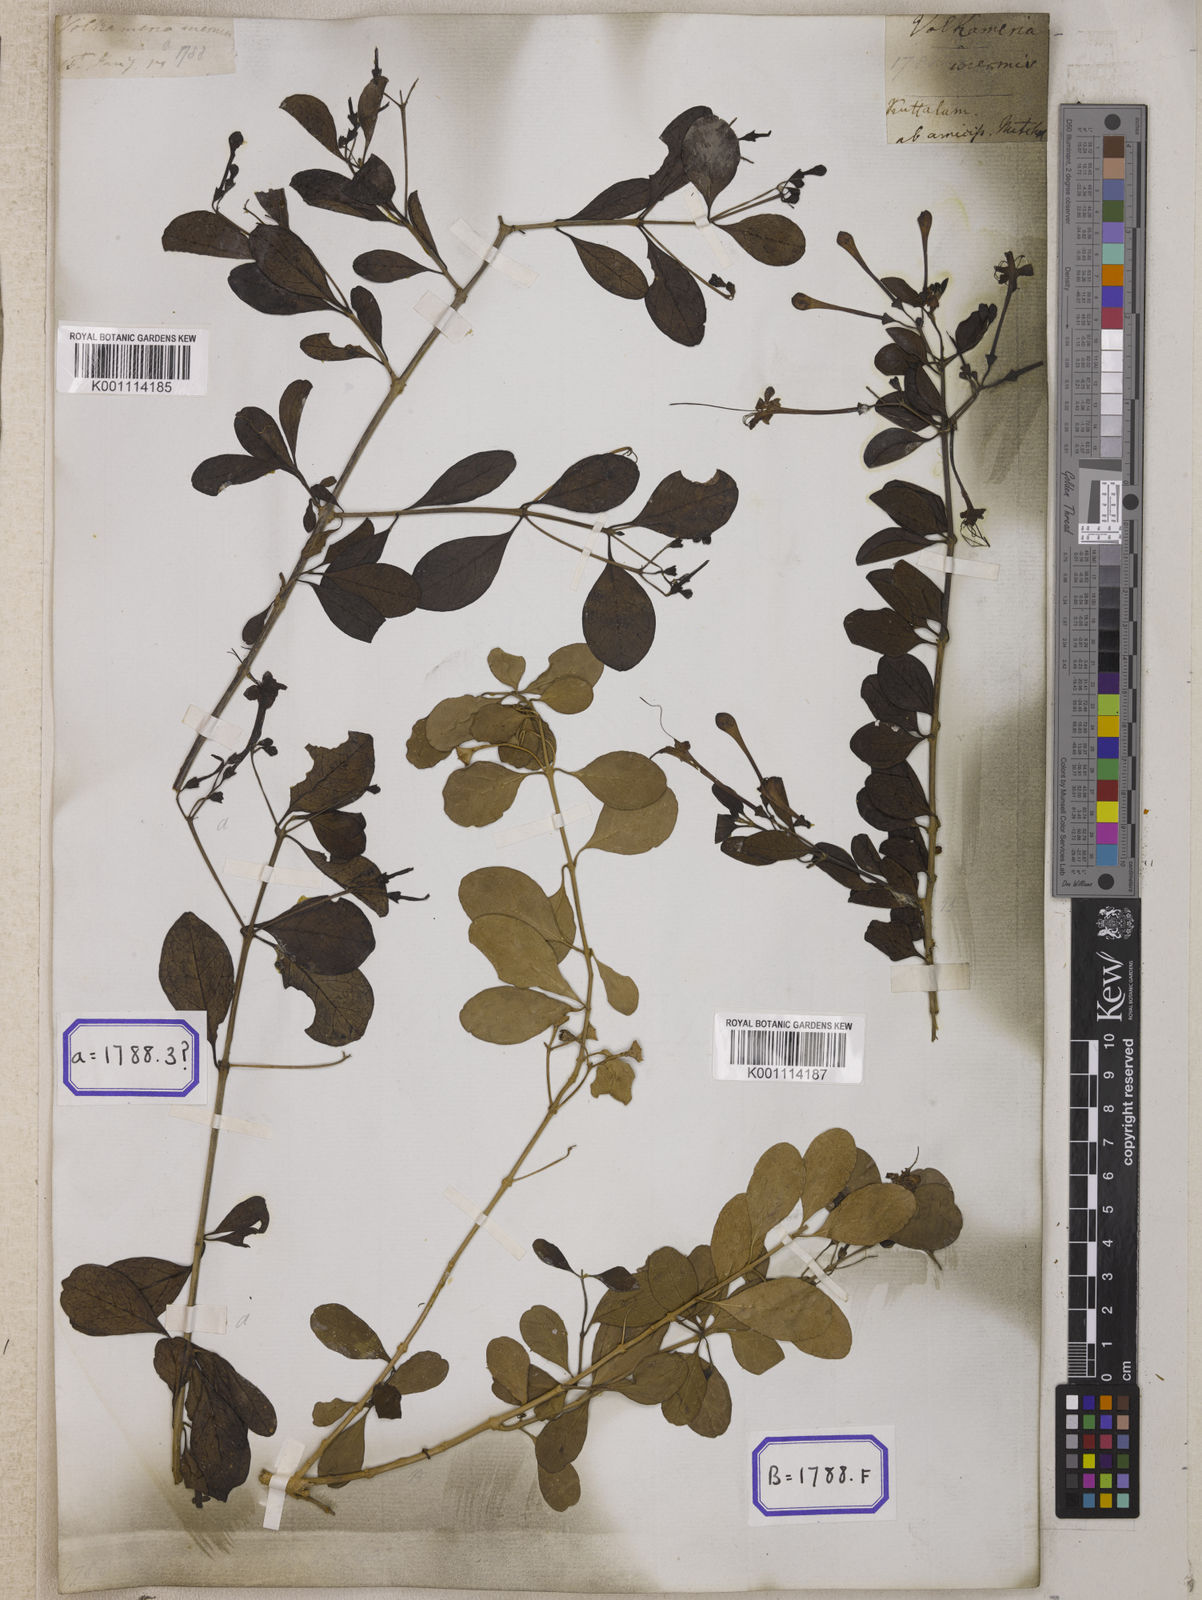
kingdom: Plantae
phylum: Tracheophyta
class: Magnoliopsida
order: Lamiales
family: Lamiaceae
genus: Clerodendrum
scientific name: Clerodendrum
